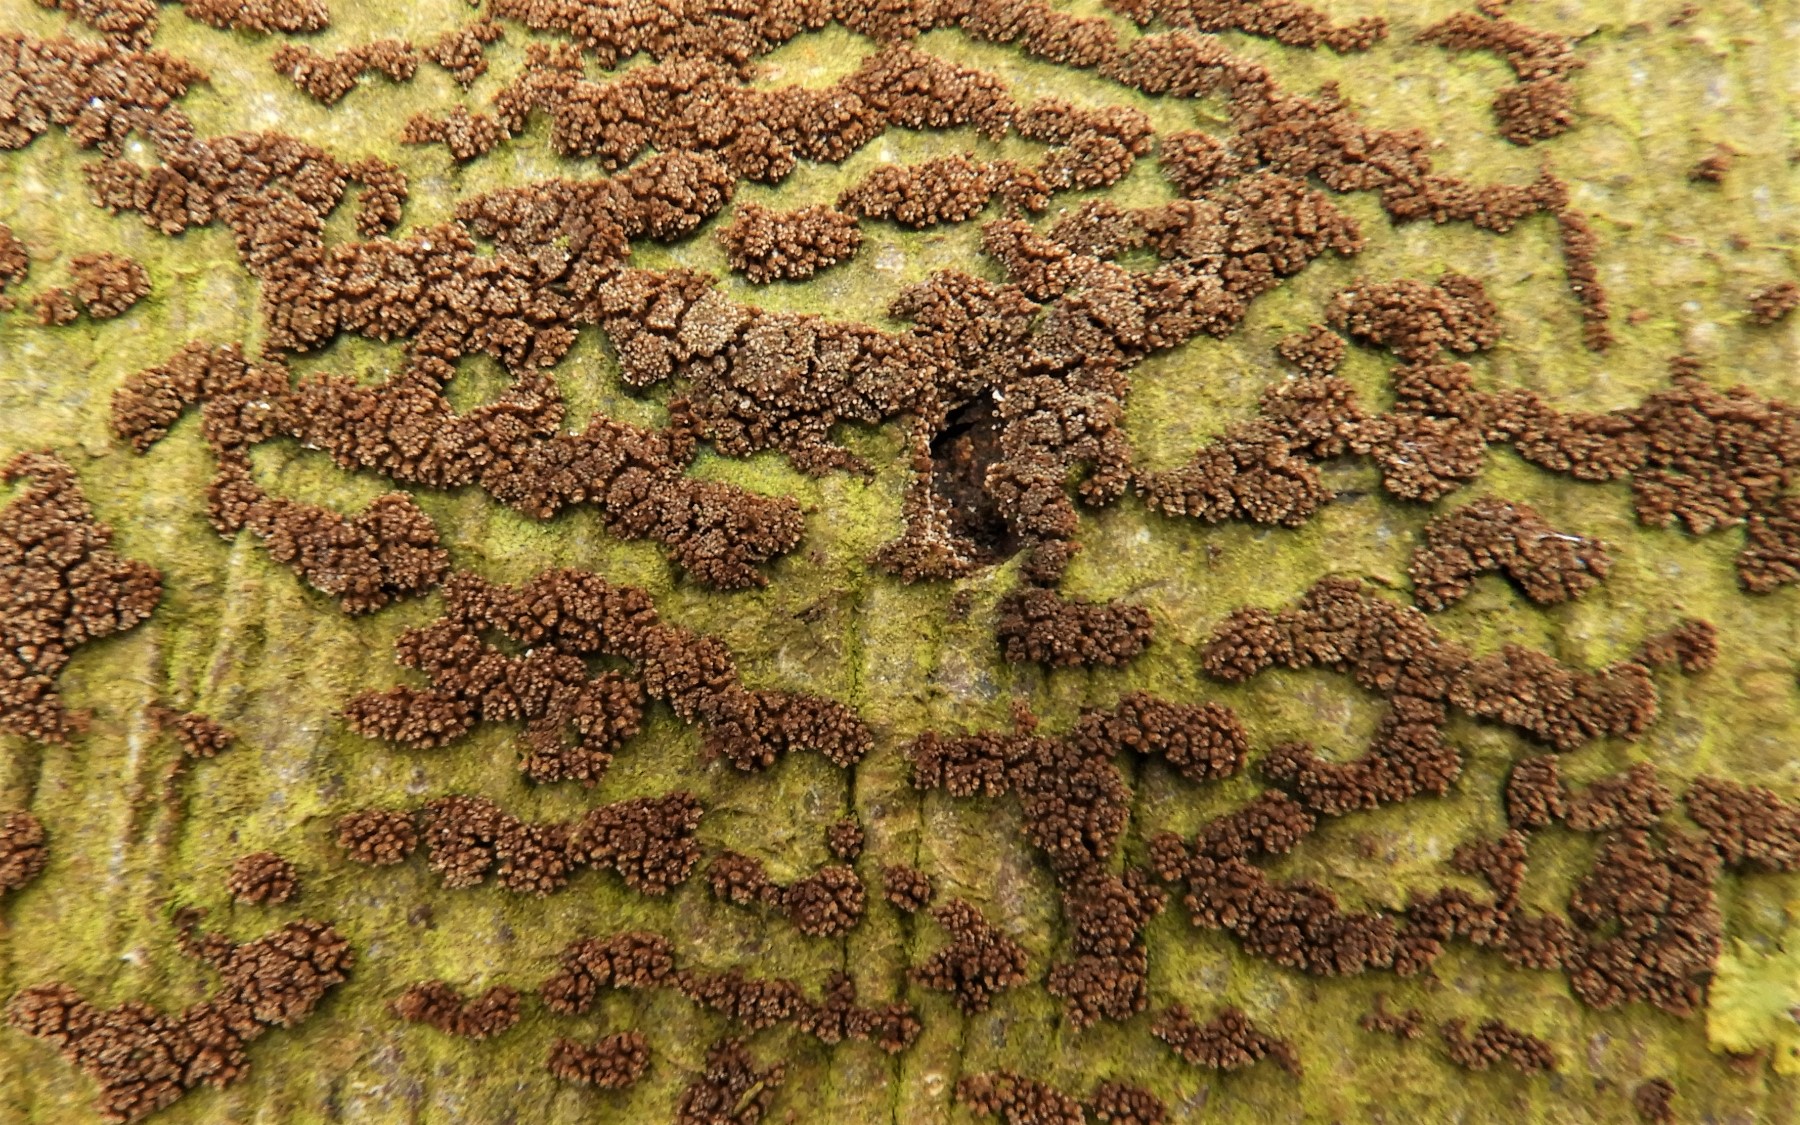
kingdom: Fungi
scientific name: Fungi
